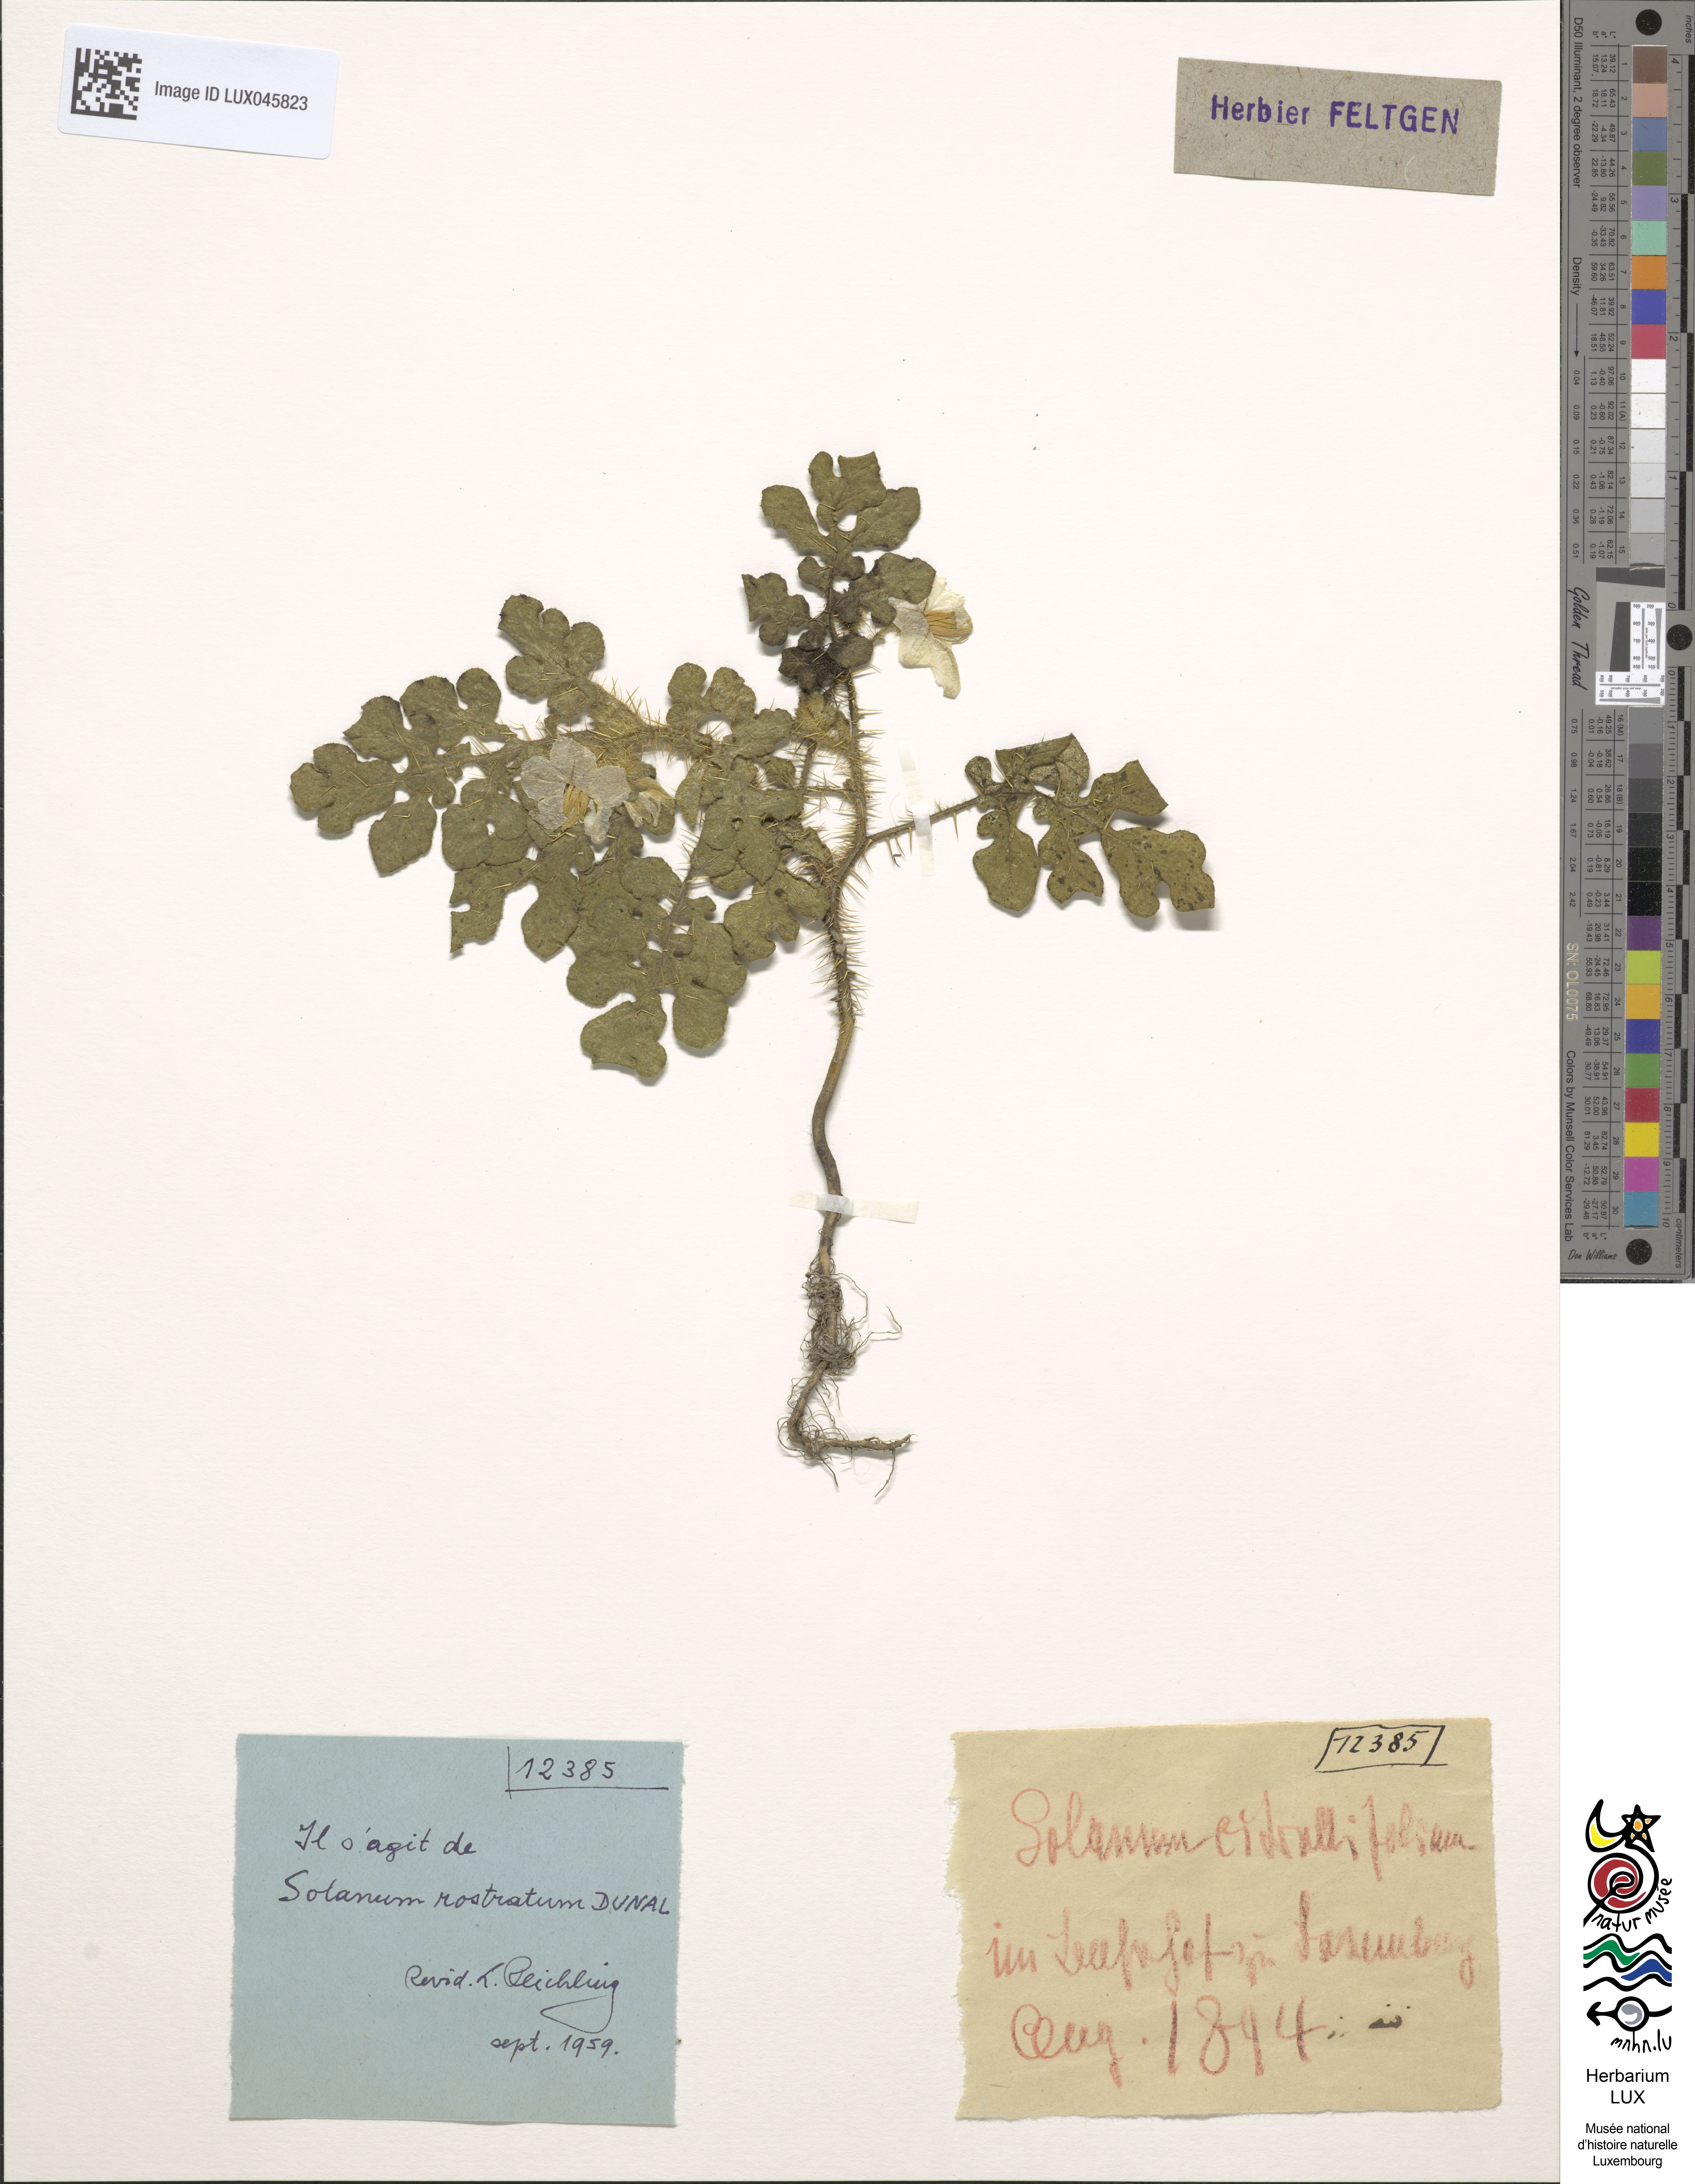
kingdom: Plantae
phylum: Tracheophyta
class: Magnoliopsida
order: Solanales
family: Solanaceae
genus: Solanum
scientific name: Solanum angustifolium
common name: Buffalobur nightshade
